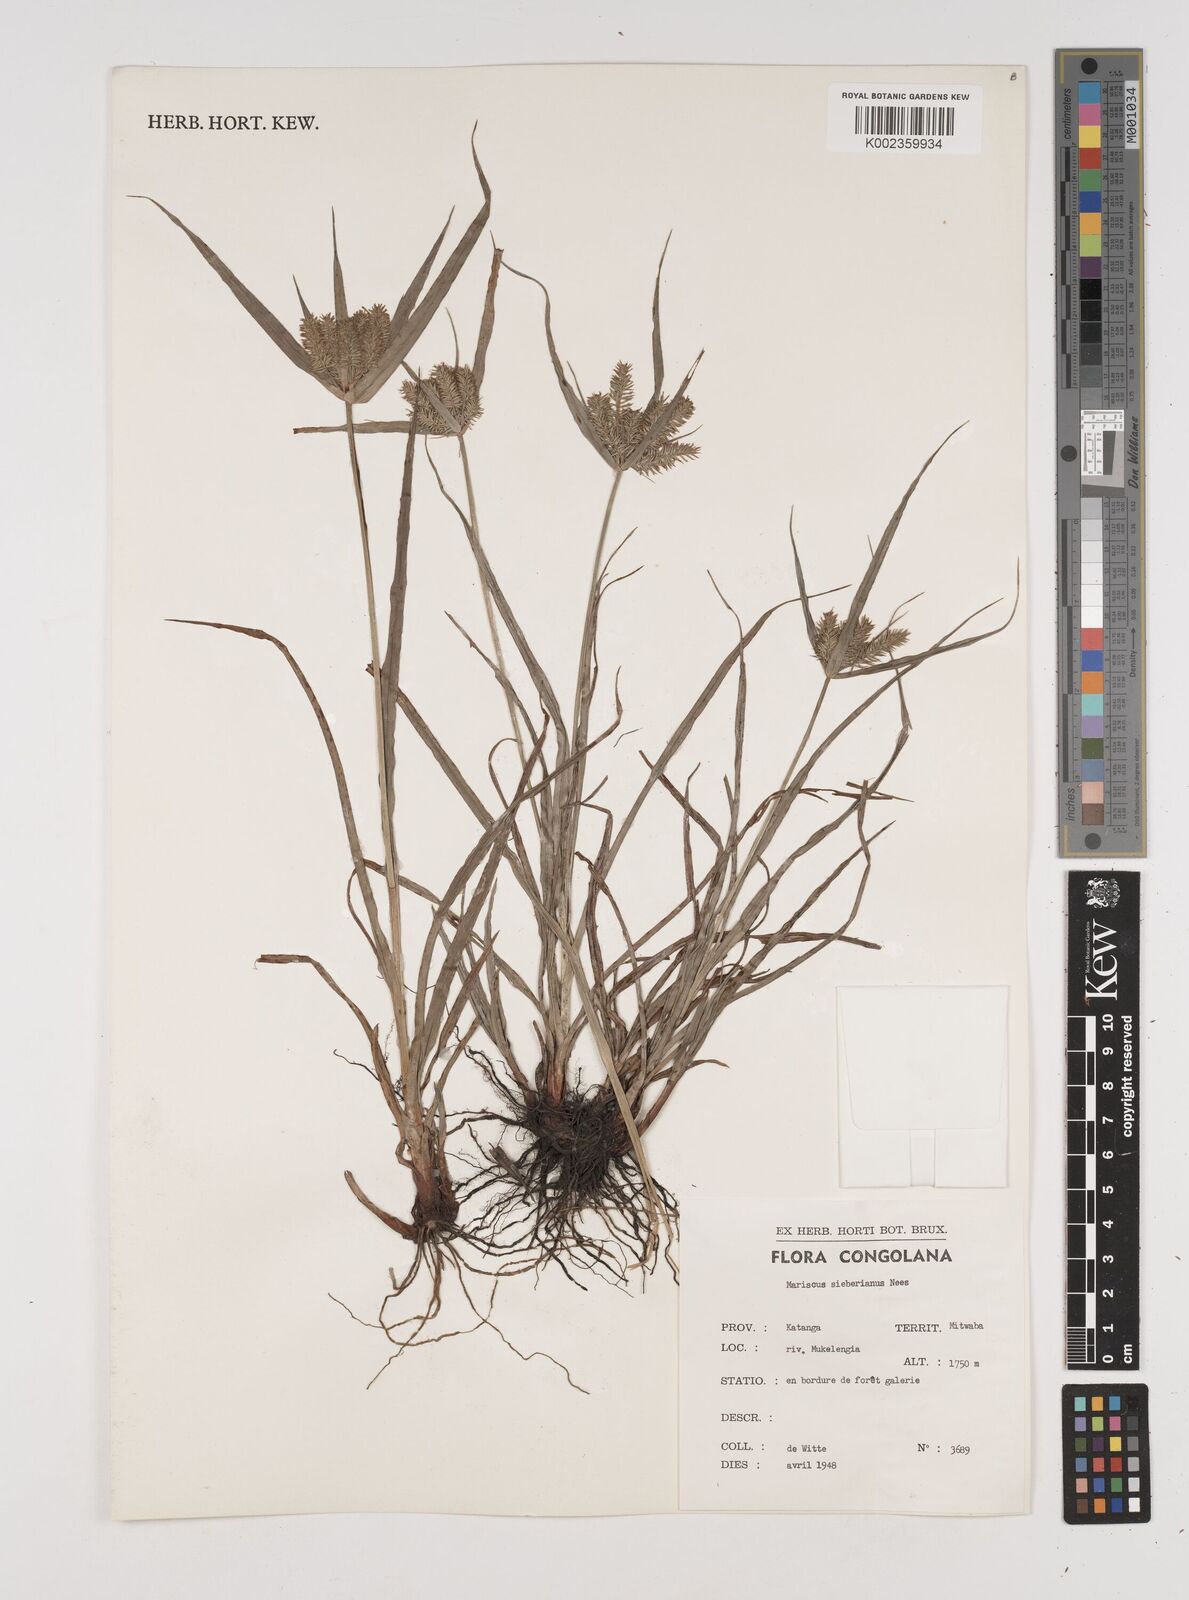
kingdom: Plantae
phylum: Tracheophyta
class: Liliopsida
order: Poales
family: Cyperaceae
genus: Cyperus
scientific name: Cyperus cyperoides
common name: Pacific island flat sedge
